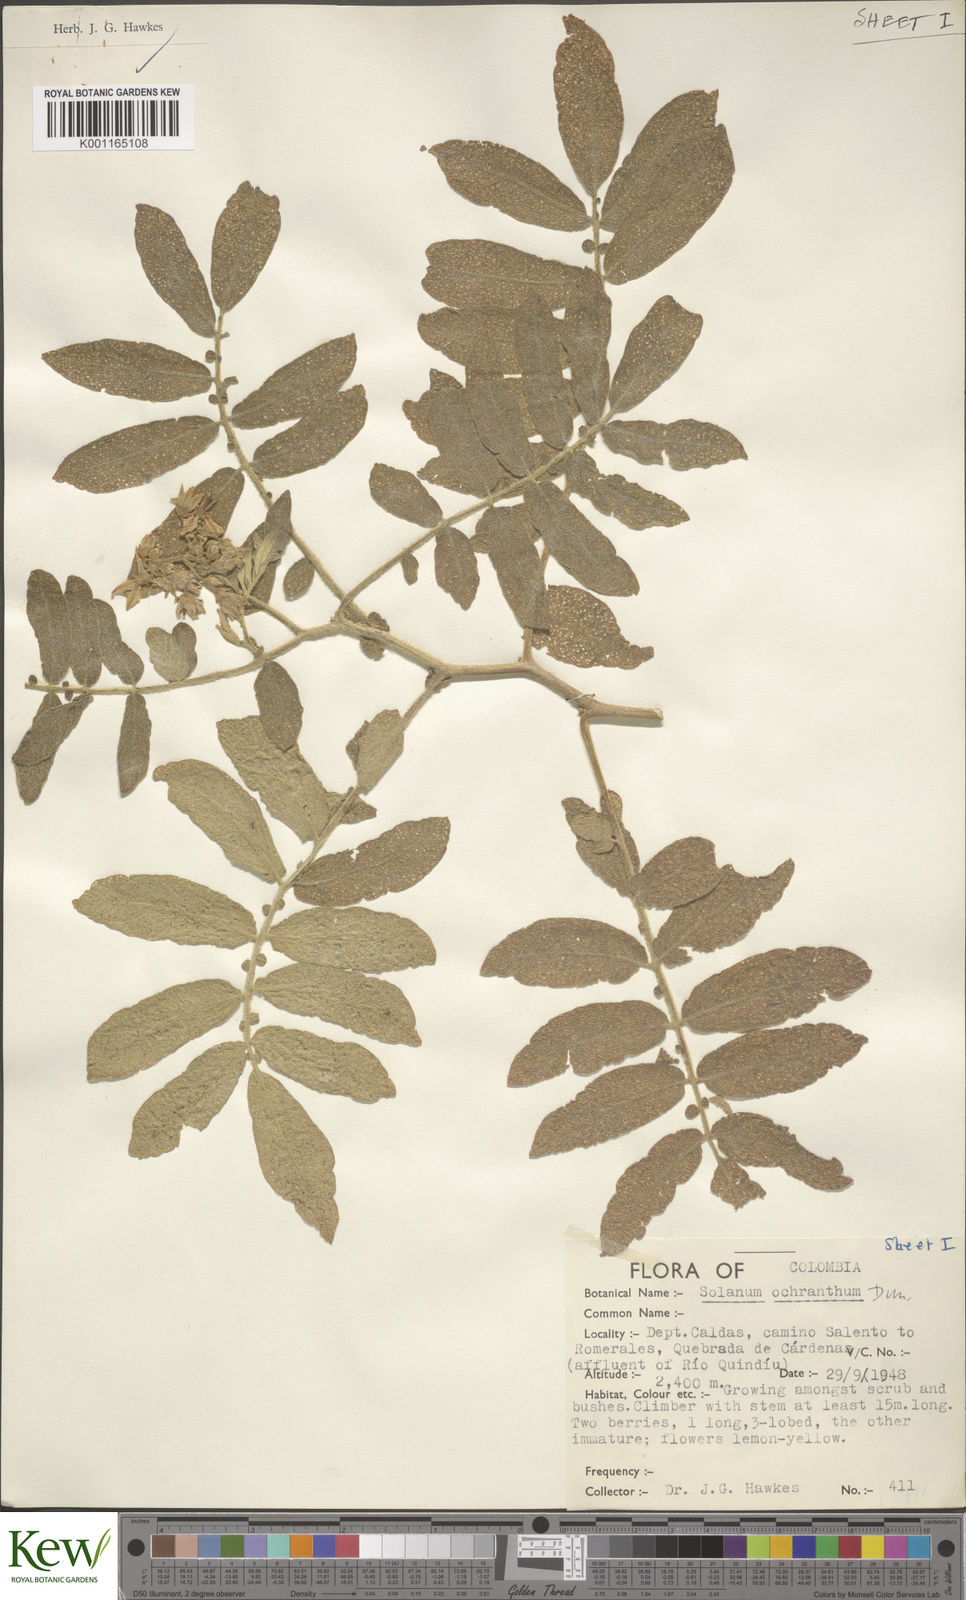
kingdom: Plantae
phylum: Tracheophyta
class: Magnoliopsida
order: Solanales
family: Solanaceae
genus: Solanum
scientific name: Solanum ochranthum
